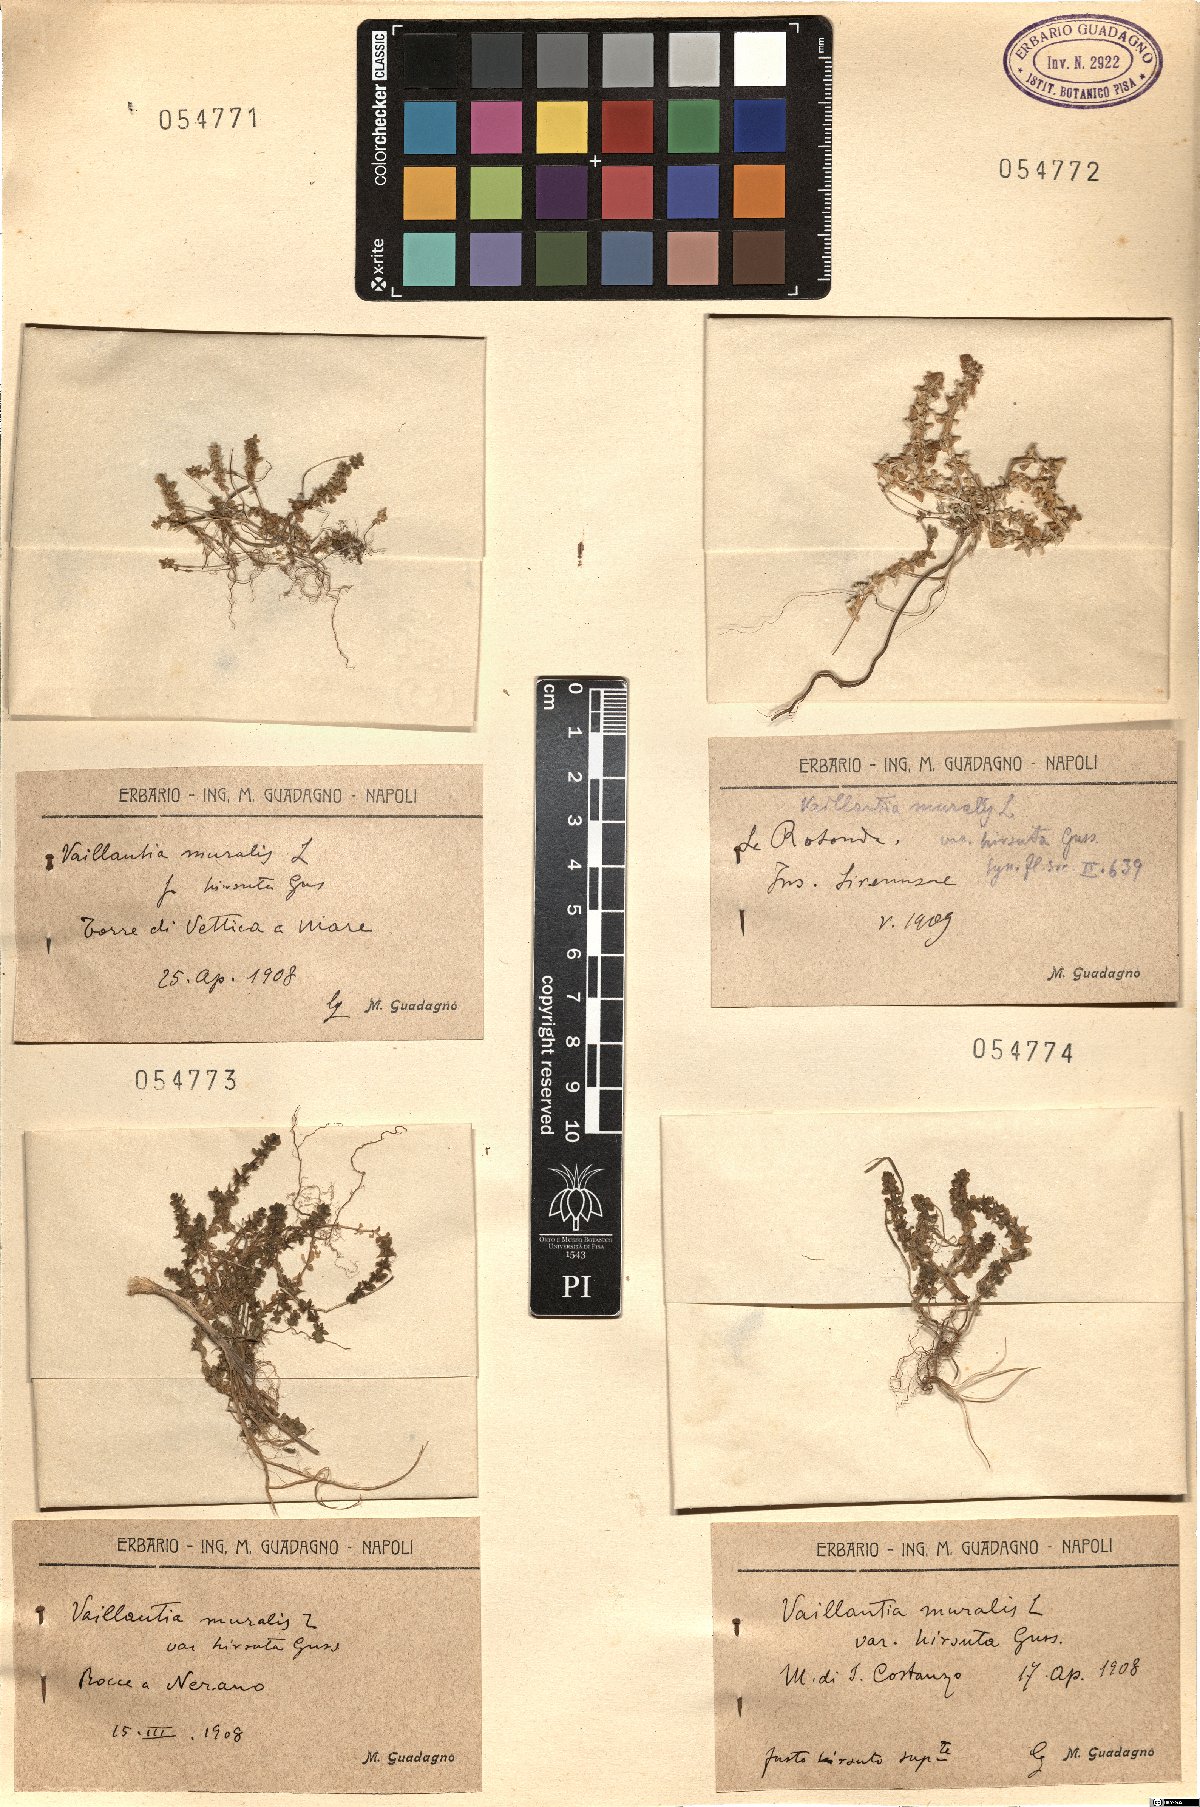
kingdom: Plantae
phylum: Tracheophyta
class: Magnoliopsida
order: Gentianales
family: Rubiaceae
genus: Valantia
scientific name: Valantia muralis
